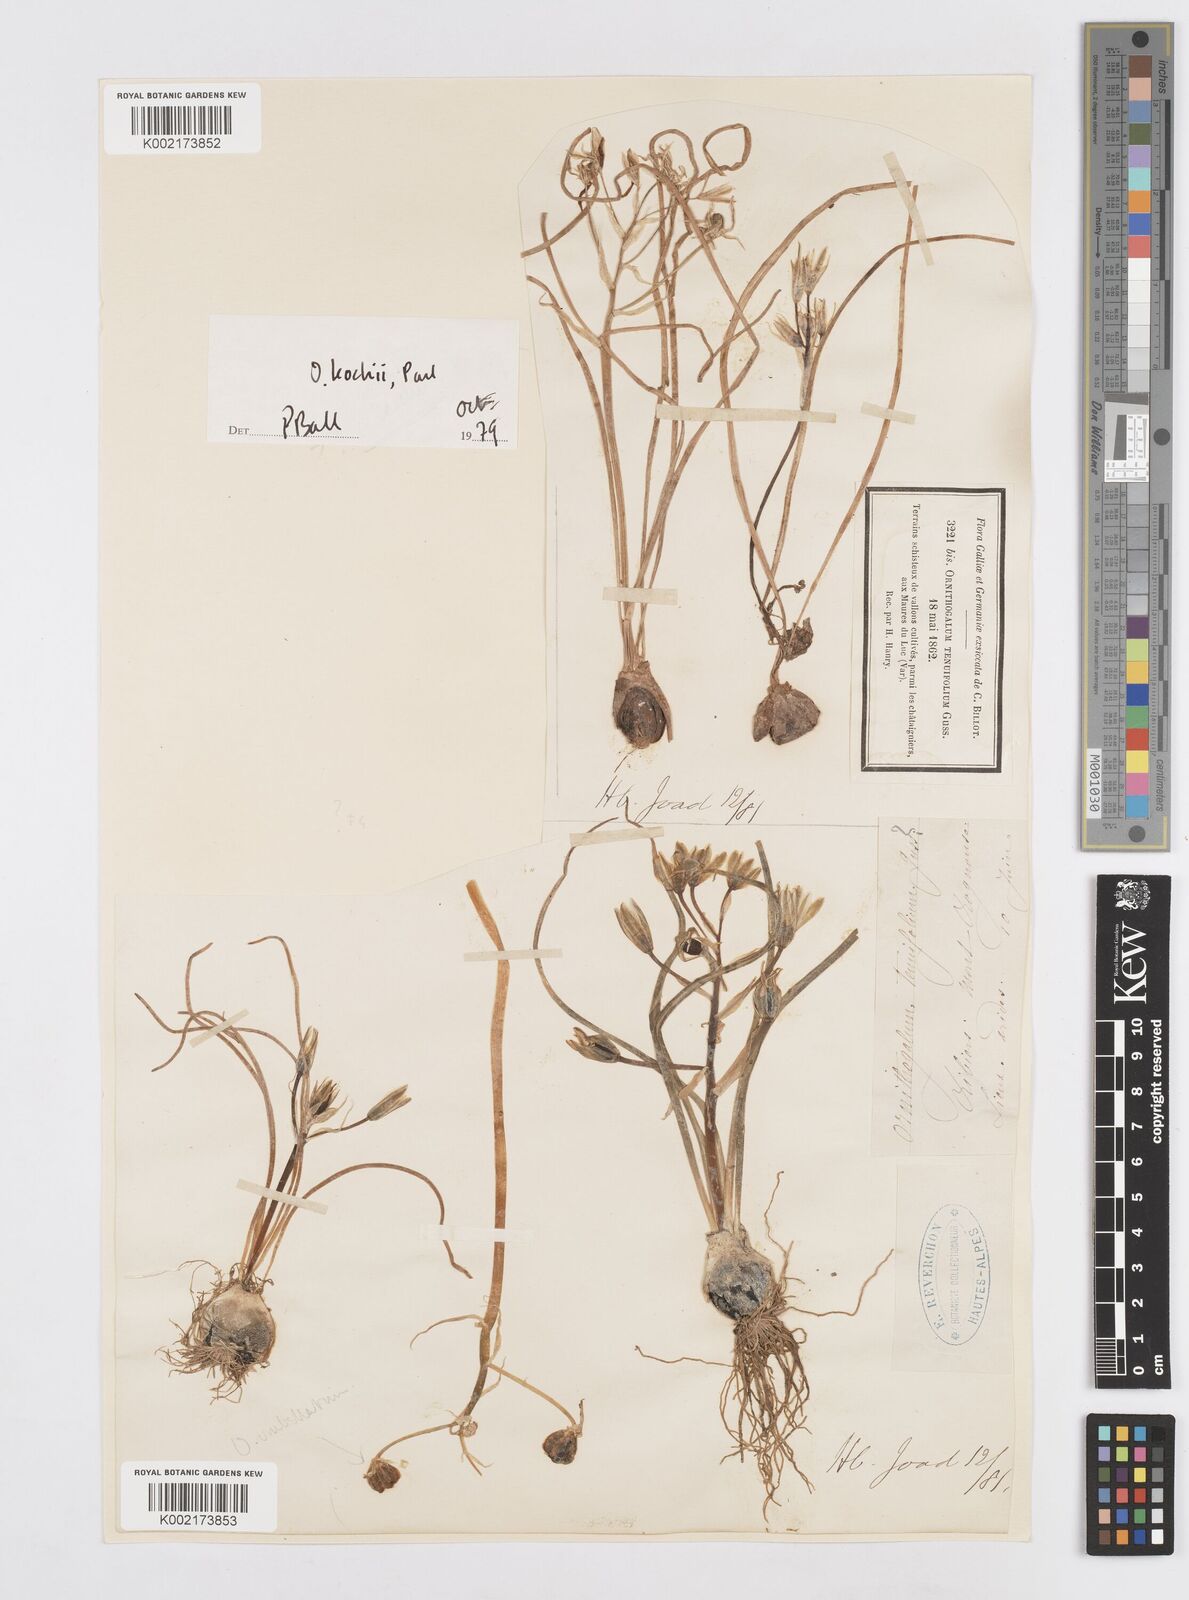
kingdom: Plantae
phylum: Tracheophyta
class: Liliopsida
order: Asparagales
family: Asparagaceae
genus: Ornithogalum
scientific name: Ornithogalum orthophyllum
